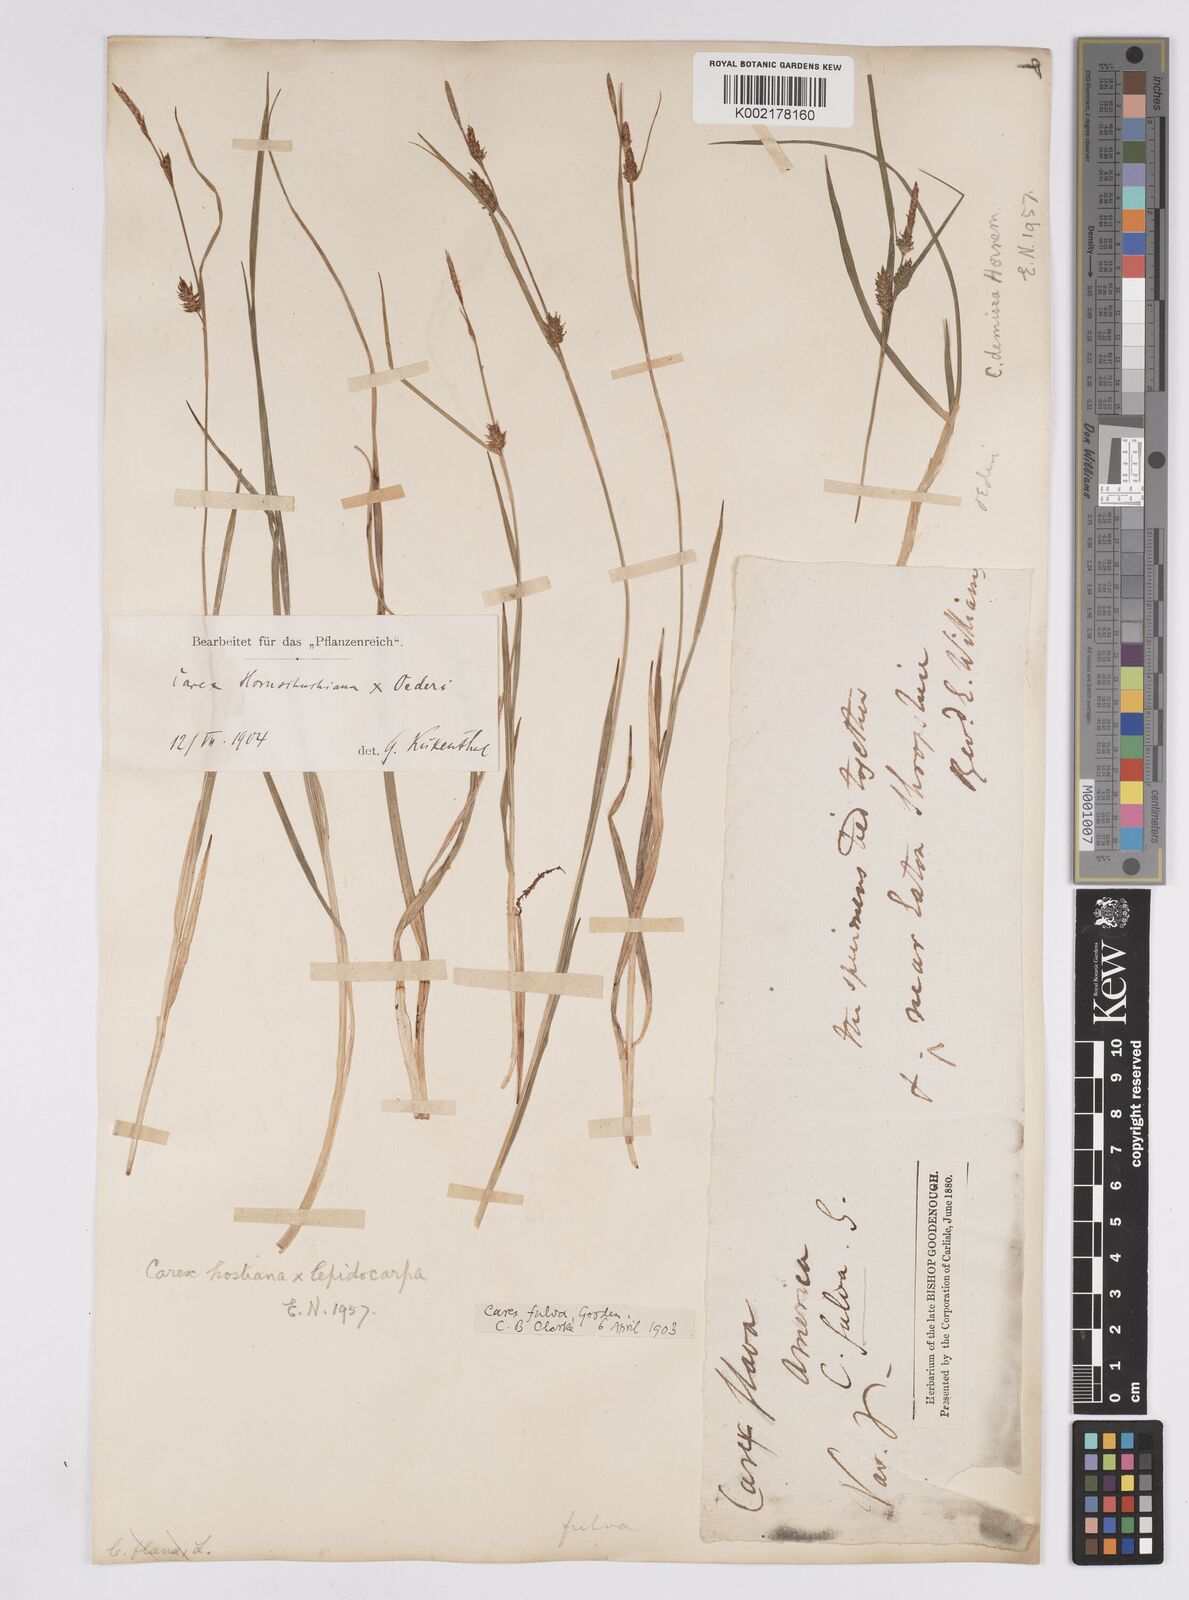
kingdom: Plantae
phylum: Tracheophyta
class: Liliopsida
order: Poales
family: Cyperaceae
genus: Carex
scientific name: Carex demissa
